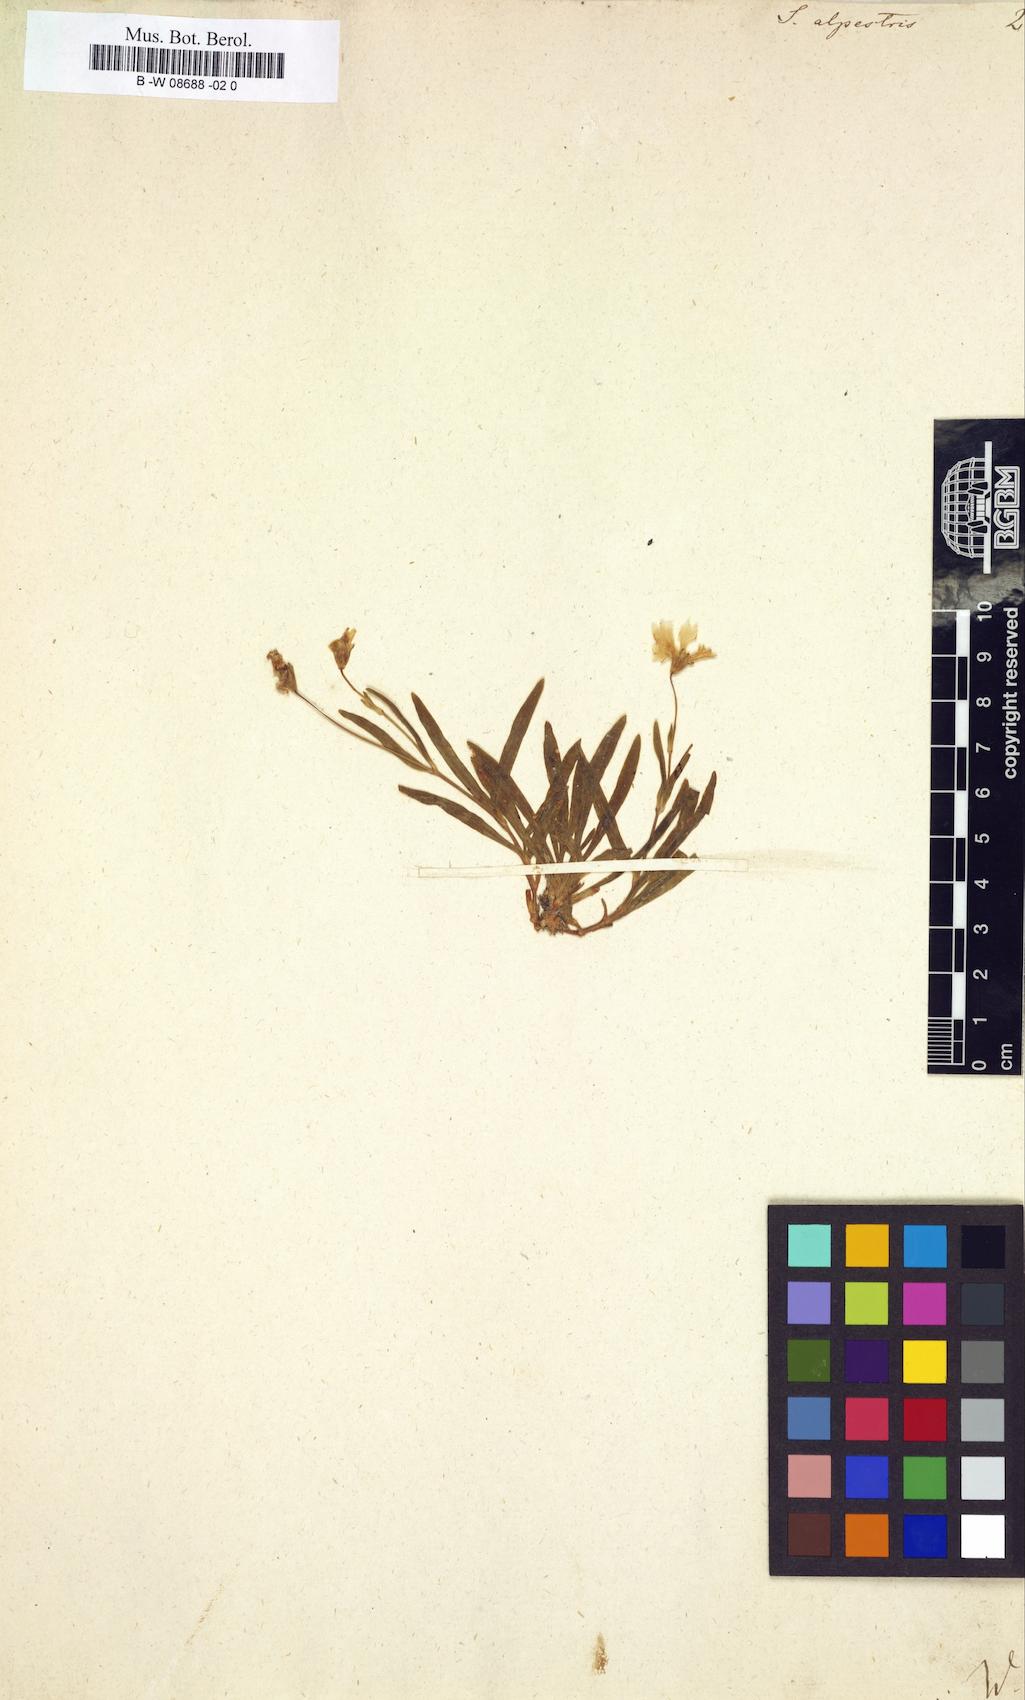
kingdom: Plantae
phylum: Tracheophyta
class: Magnoliopsida
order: Caryophyllales
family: Caryophyllaceae
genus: Heliosperma
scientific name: Heliosperma alpestre
